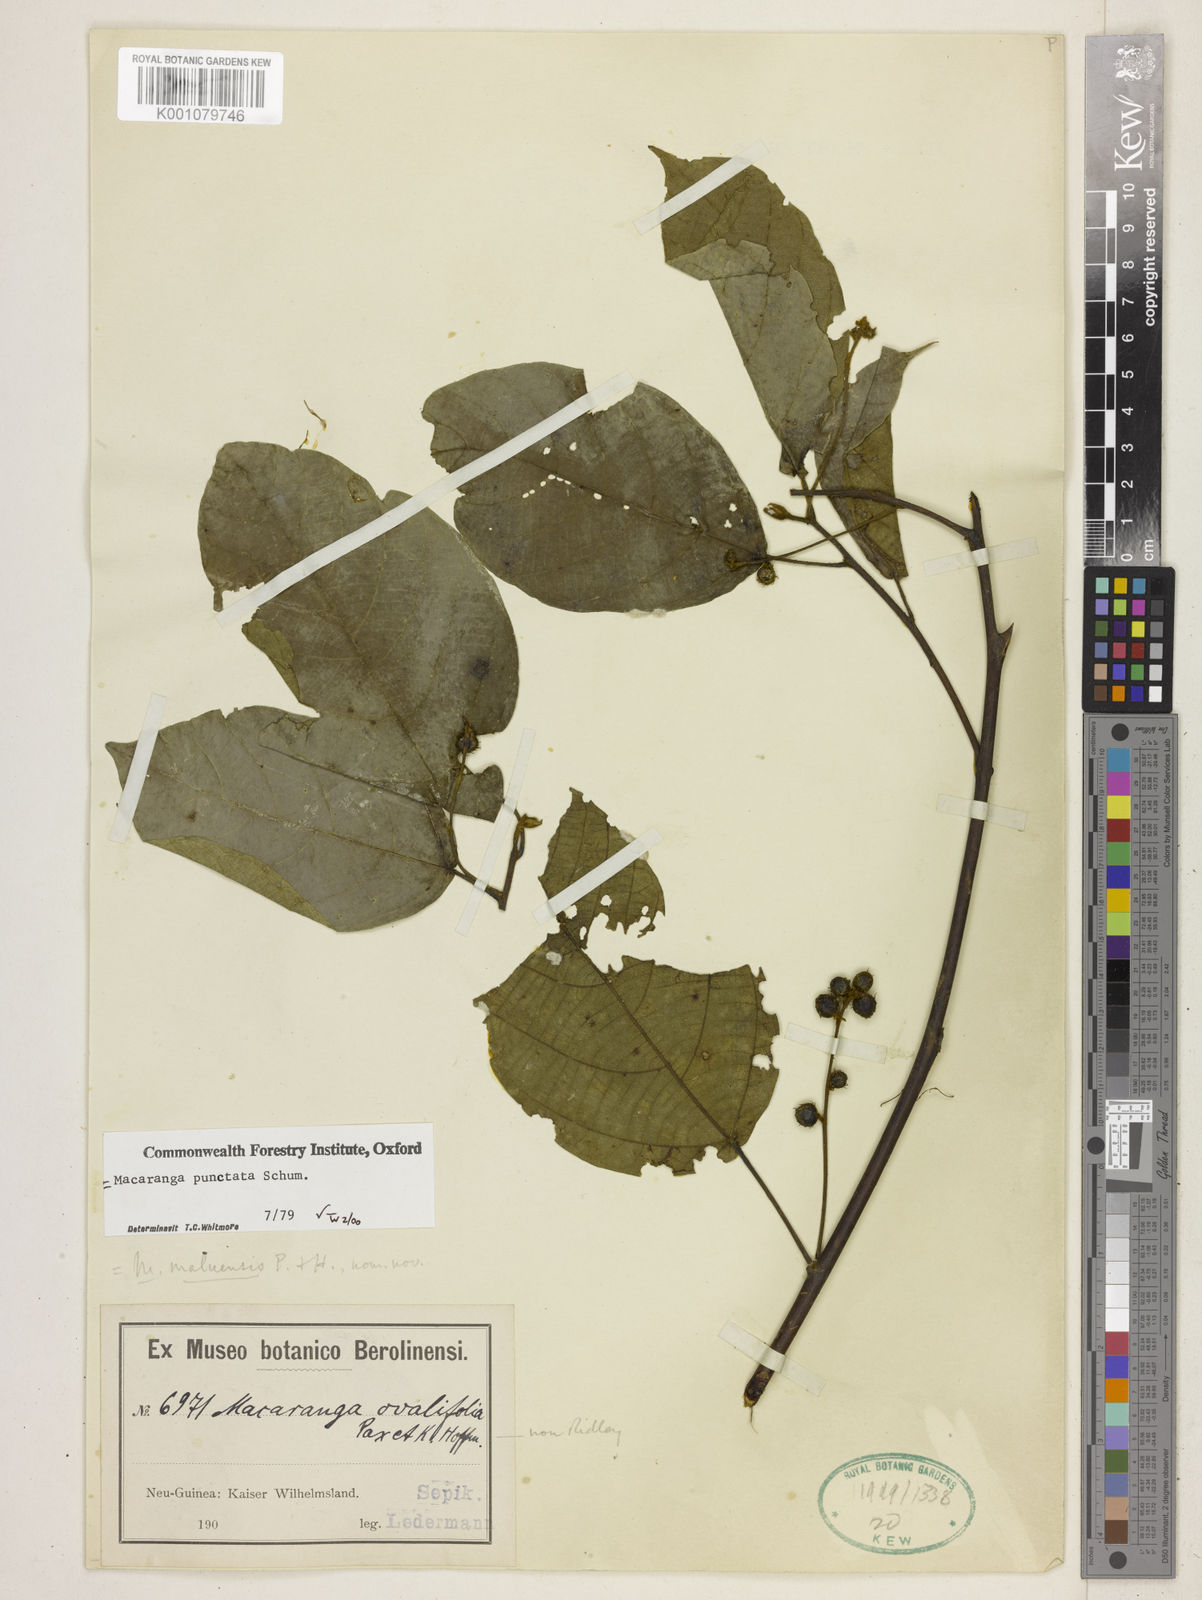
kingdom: Plantae
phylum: Tracheophyta
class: Magnoliopsida
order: Malpighiales
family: Euphorbiaceae
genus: Macaranga
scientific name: Macaranga punctata
